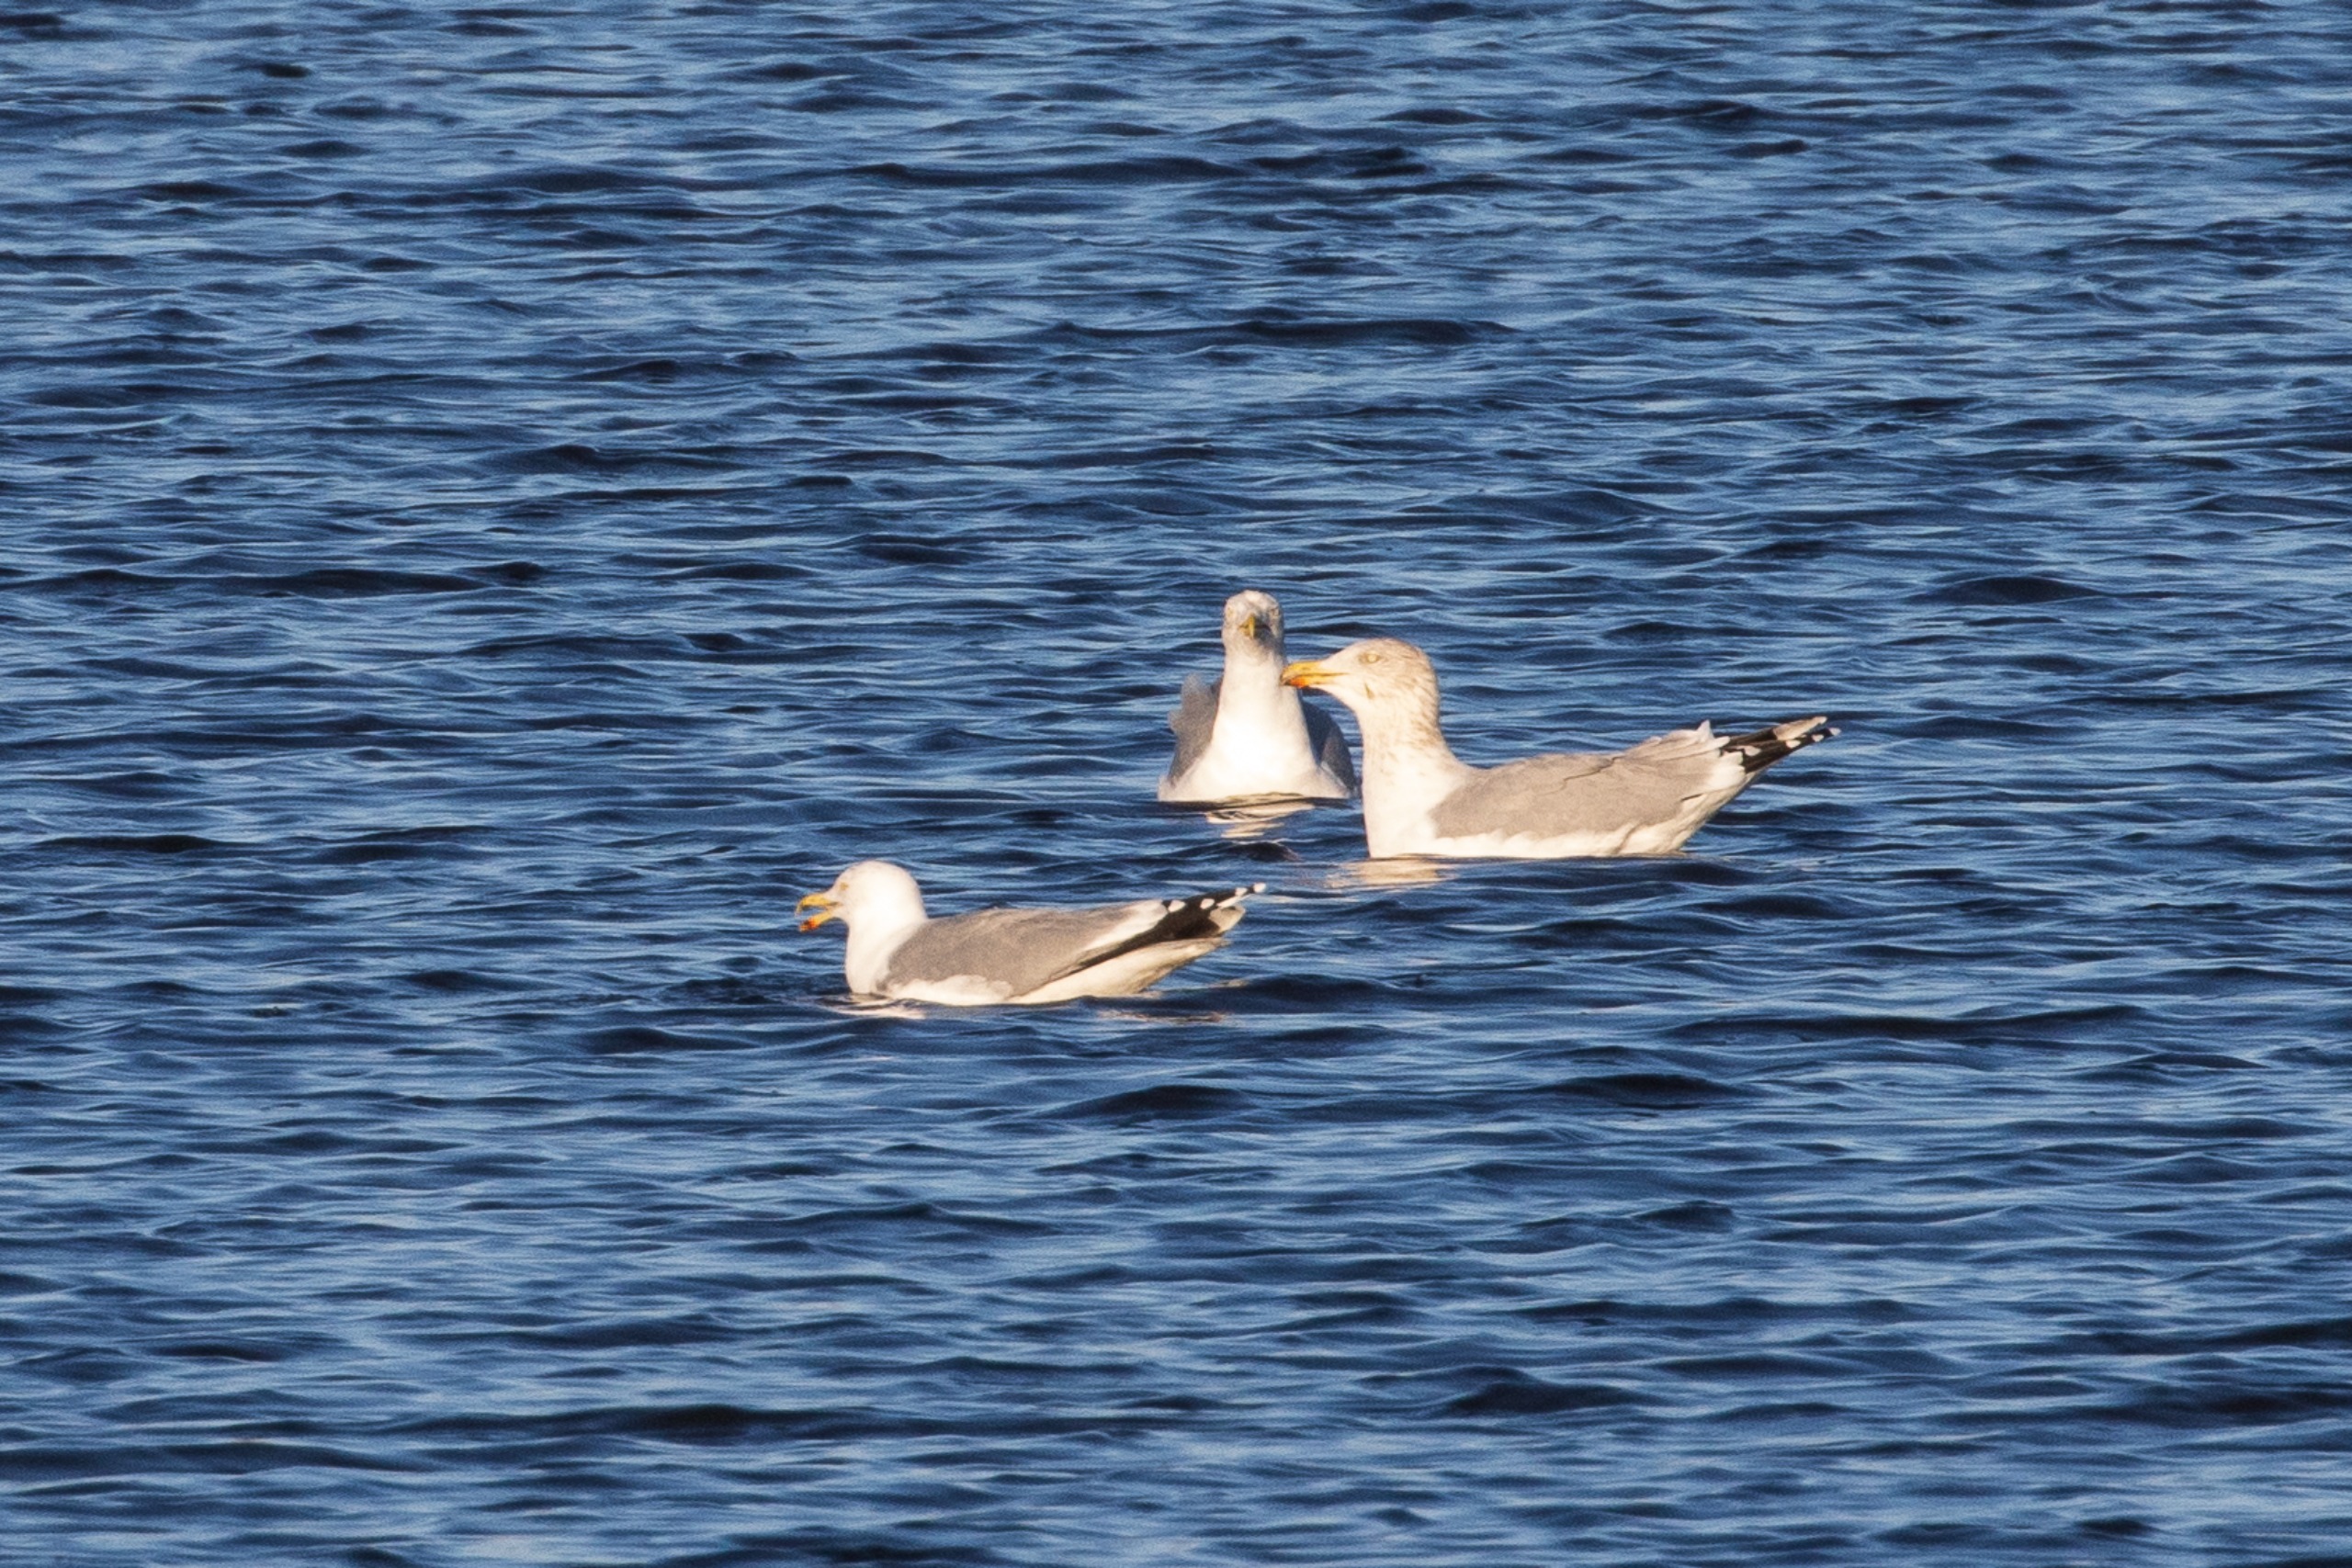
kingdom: Animalia
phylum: Chordata
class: Aves
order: Charadriiformes
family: Laridae
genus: Larus
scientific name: Larus argentatus
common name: Sølvmåge
